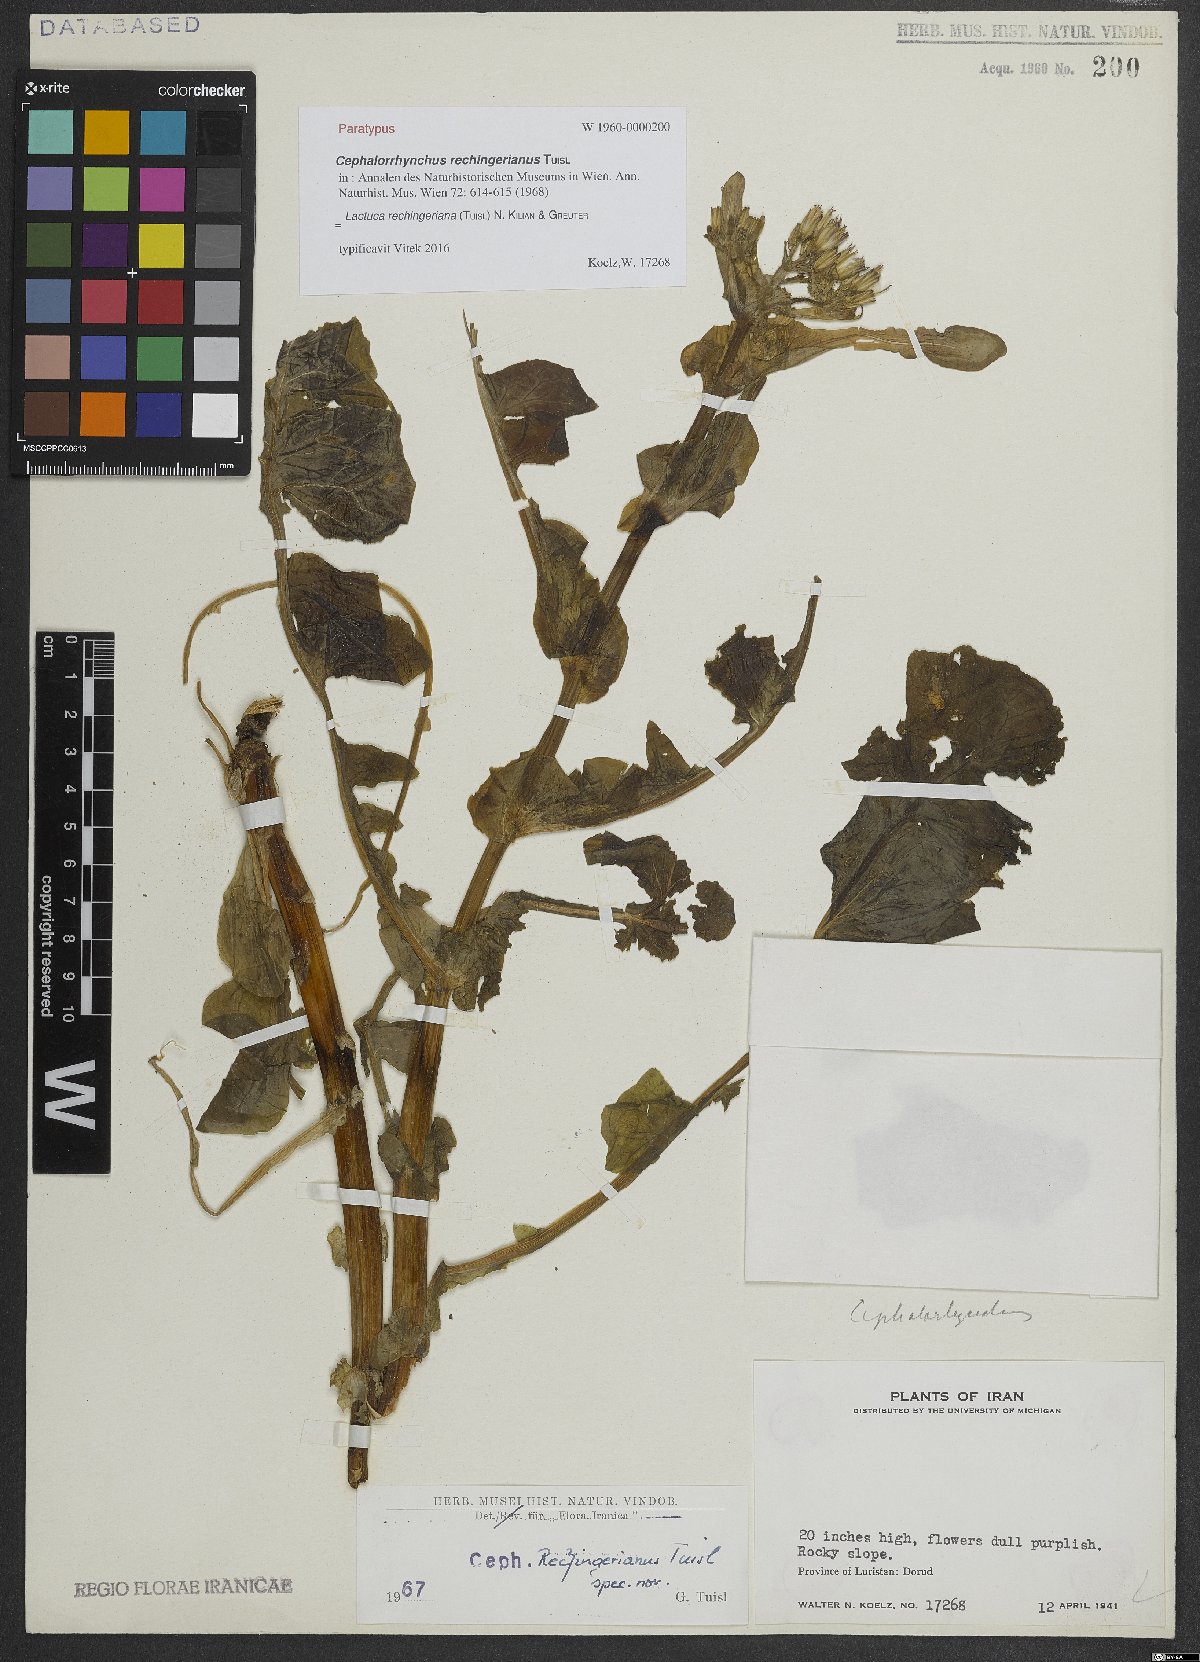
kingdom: Plantae
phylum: Tracheophyta
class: Magnoliopsida
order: Asterales
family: Asteraceae
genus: Cicerbita
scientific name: Cicerbita rechingeriana
